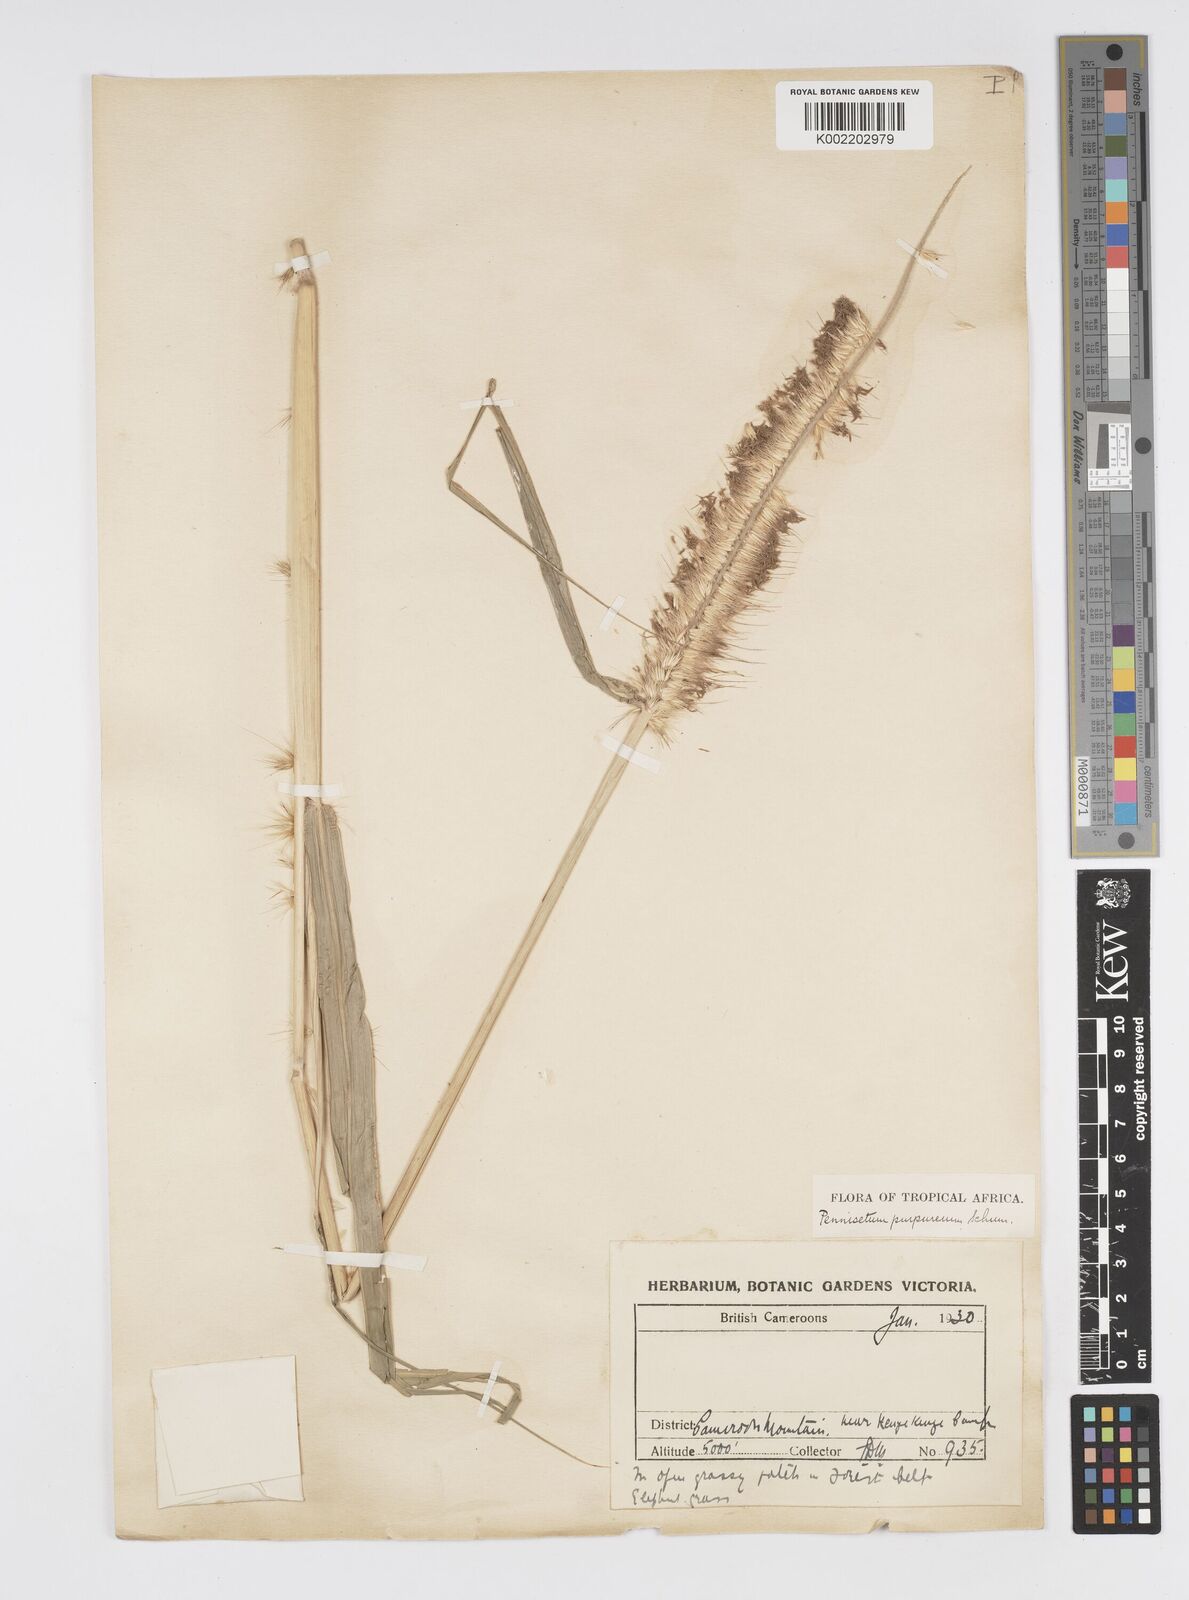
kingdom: Plantae
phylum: Tracheophyta
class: Liliopsida
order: Poales
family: Poaceae
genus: Cenchrus
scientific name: Cenchrus purpureus
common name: Elephant grass
